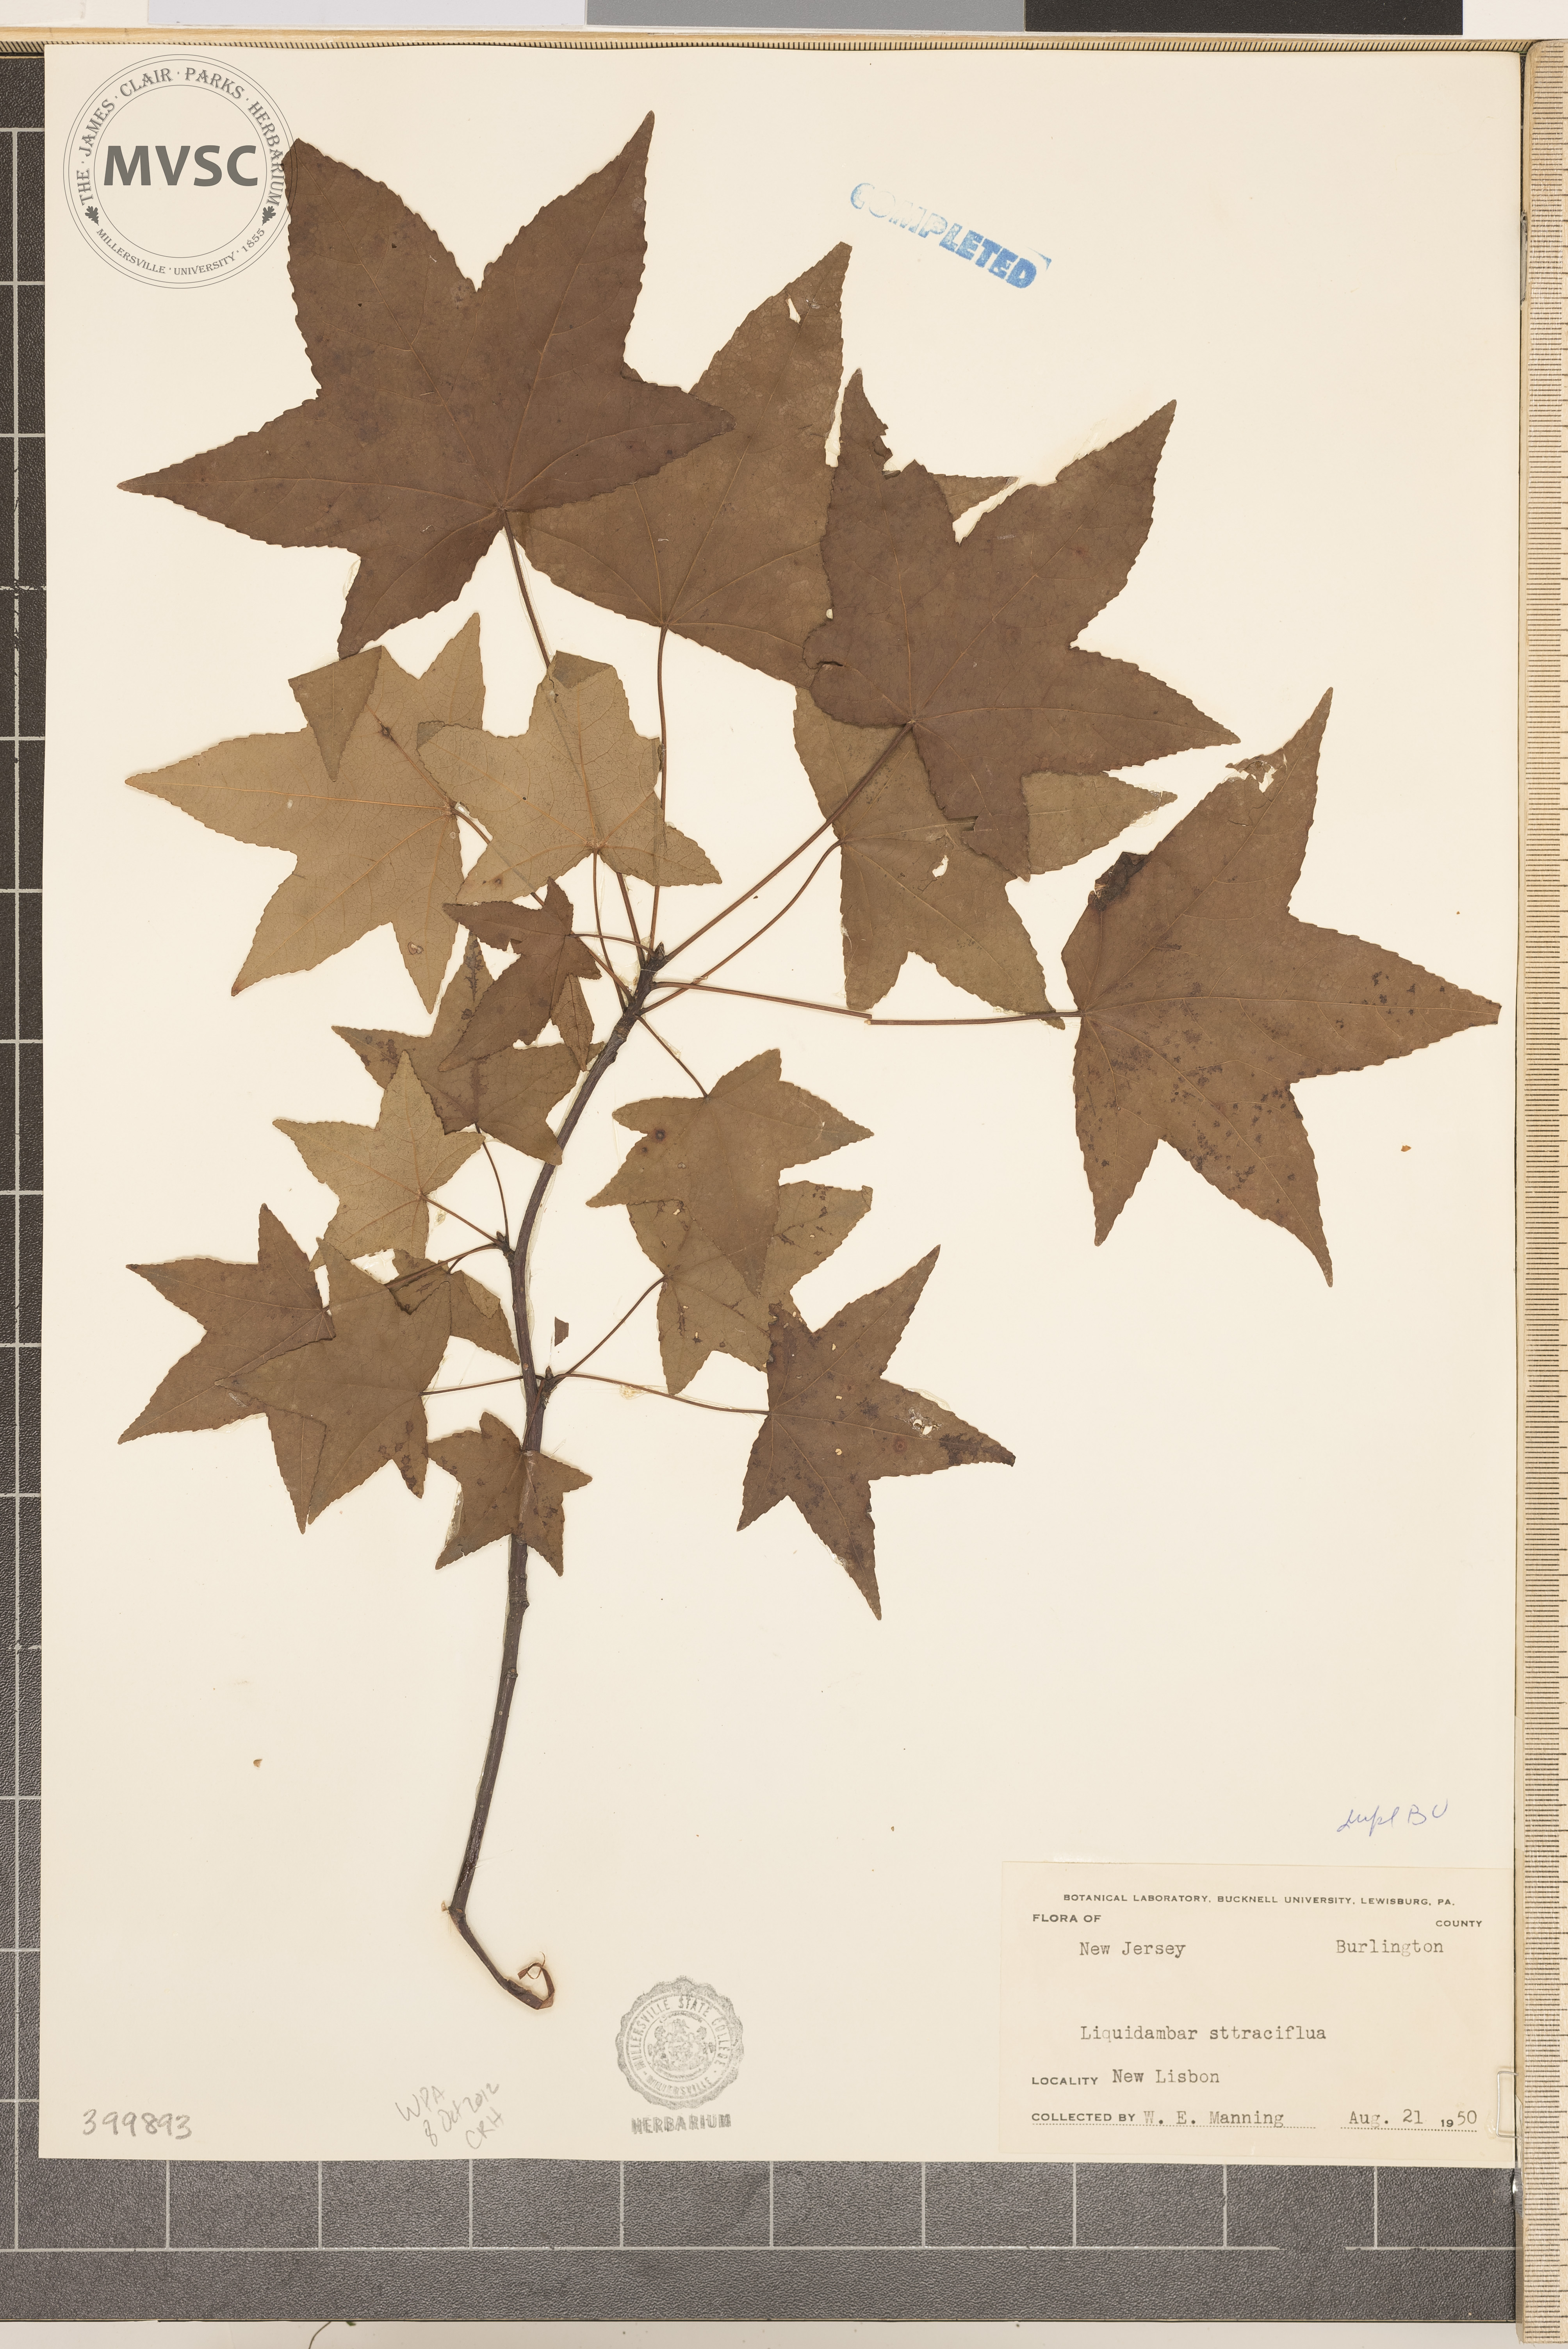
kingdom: Plantae
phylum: Tracheophyta
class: Magnoliopsida
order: Saxifragales
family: Altingiaceae
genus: Liquidambar
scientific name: Liquidambar styraciflua
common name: sweetgum
